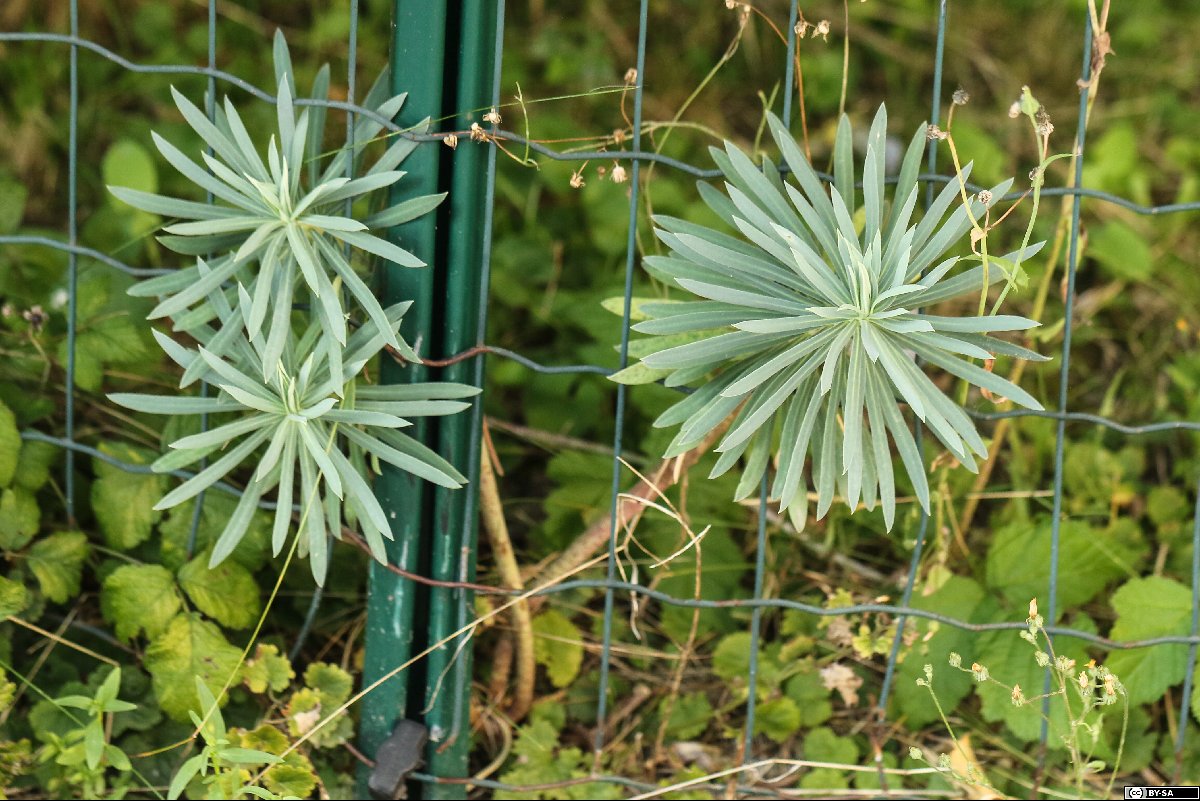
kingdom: Plantae
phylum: Tracheophyta
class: Magnoliopsida
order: Malpighiales
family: Euphorbiaceae
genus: Euphorbia
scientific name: Euphorbia characias
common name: Mediterranean spurge
